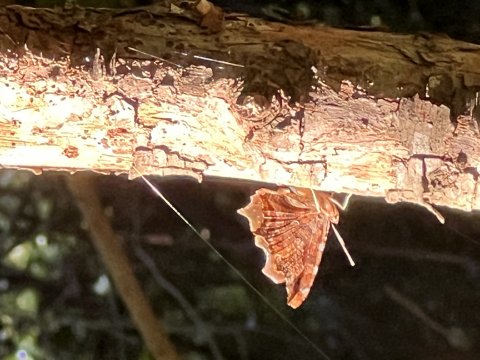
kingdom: Animalia
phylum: Arthropoda
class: Insecta
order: Lepidoptera
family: Nymphalidae
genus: Polygonia
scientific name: Polygonia comma
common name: Eastern Comma
